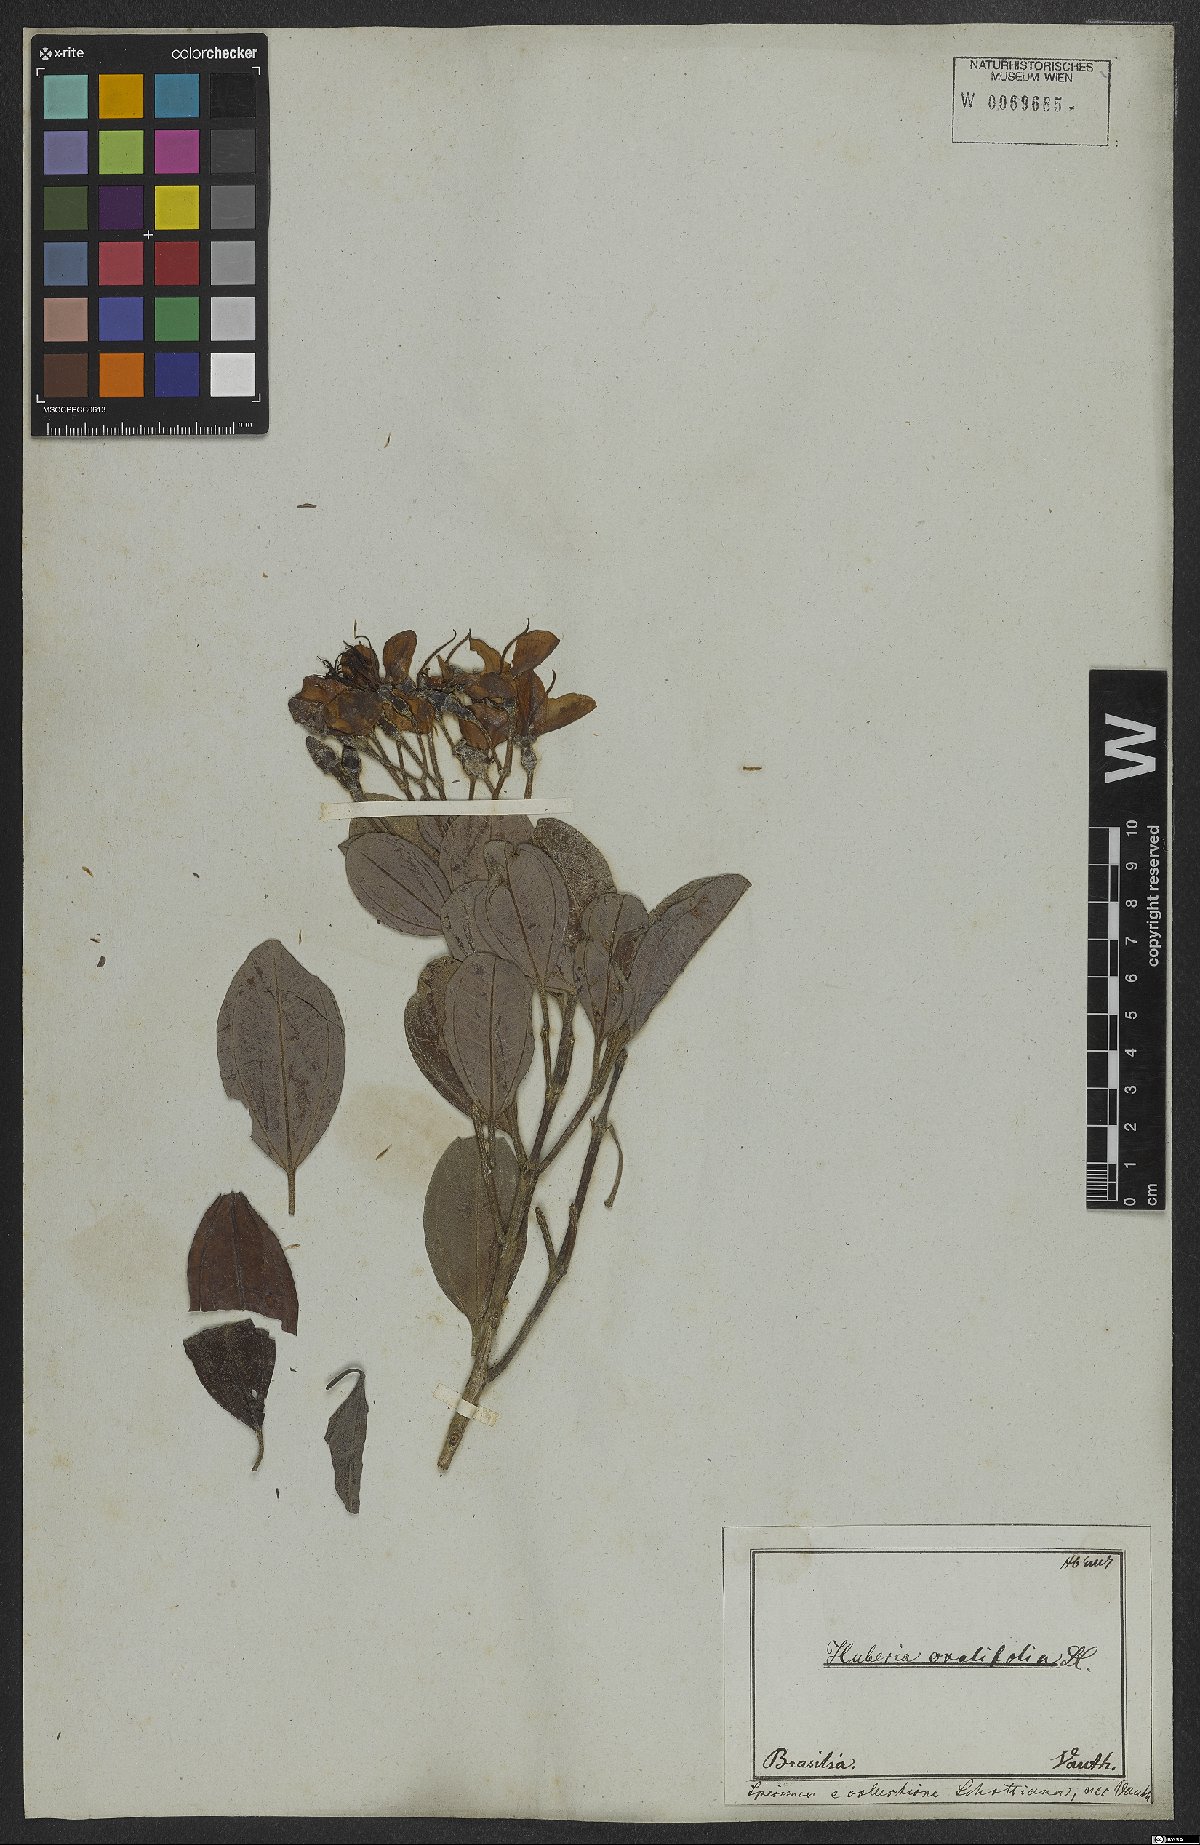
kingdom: Plantae
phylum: Tracheophyta
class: Magnoliopsida
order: Myrtales
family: Melastomataceae
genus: Huberia
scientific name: Huberia ovalifolia
